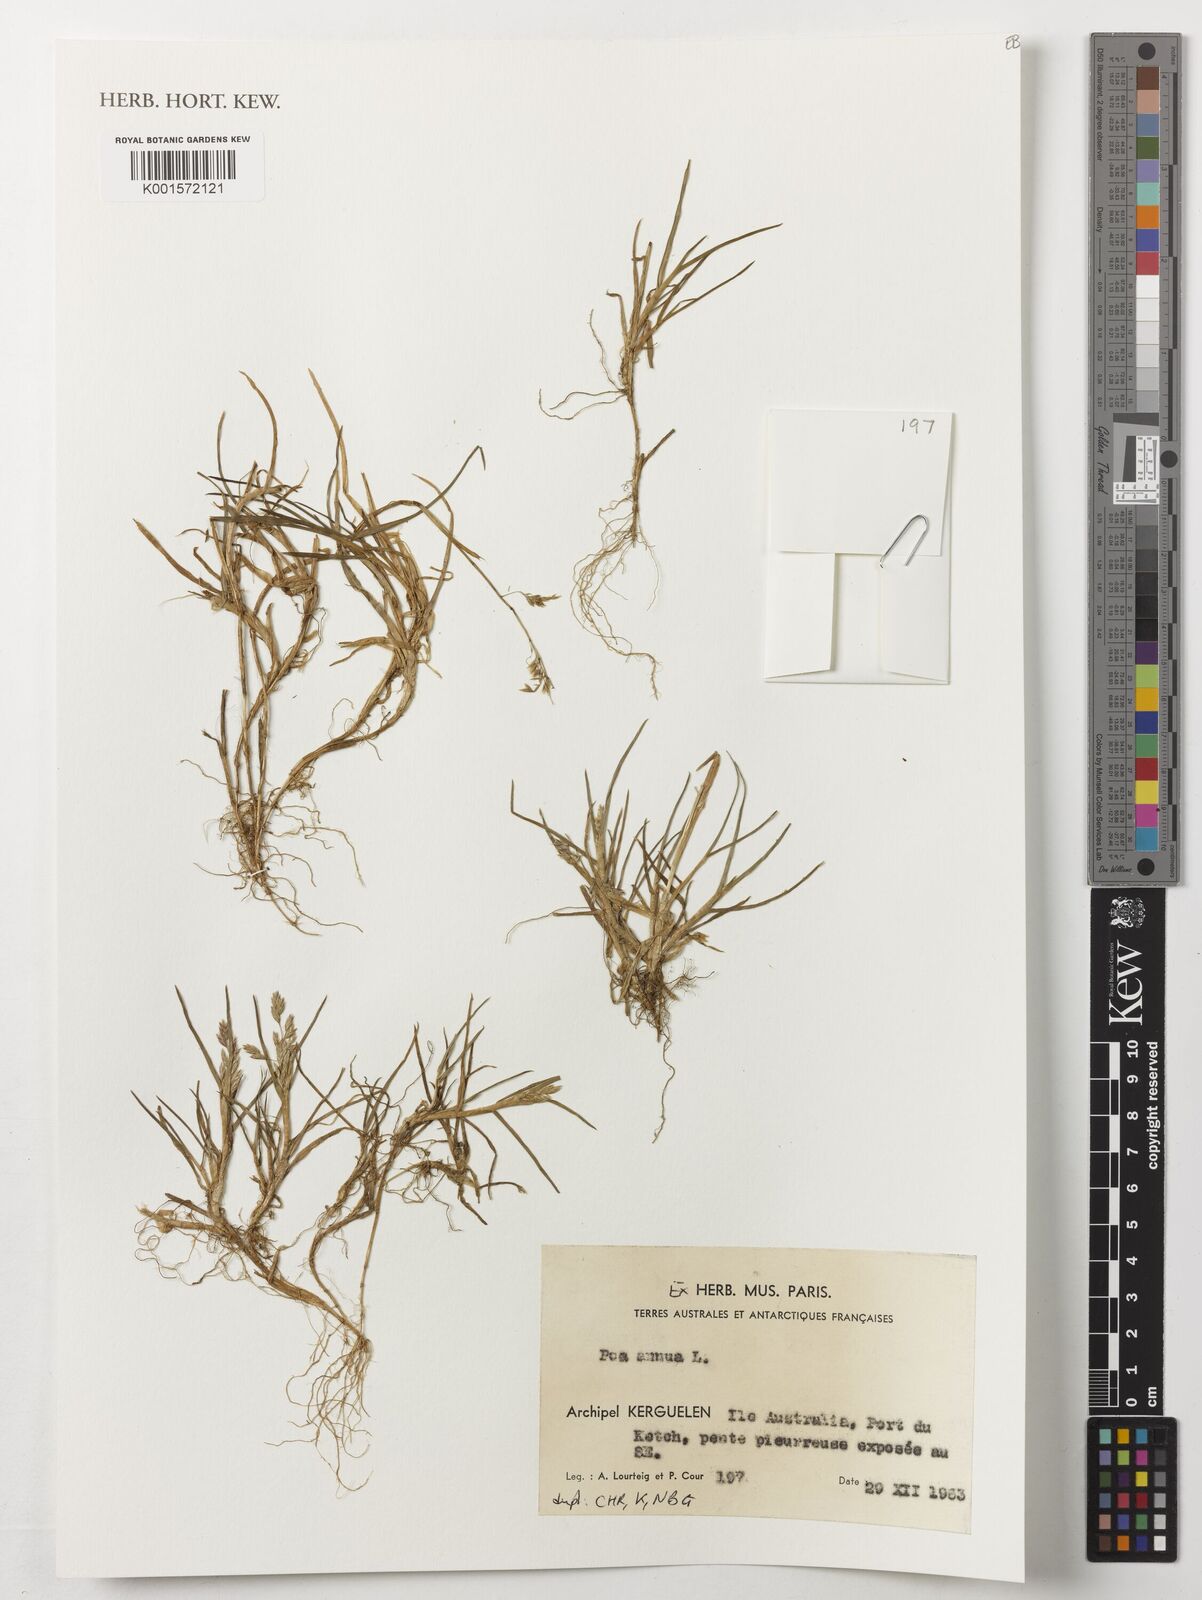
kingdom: Plantae
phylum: Tracheophyta
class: Liliopsida
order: Poales
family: Poaceae
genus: Poa
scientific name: Poa annua
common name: Annual bluegrass
